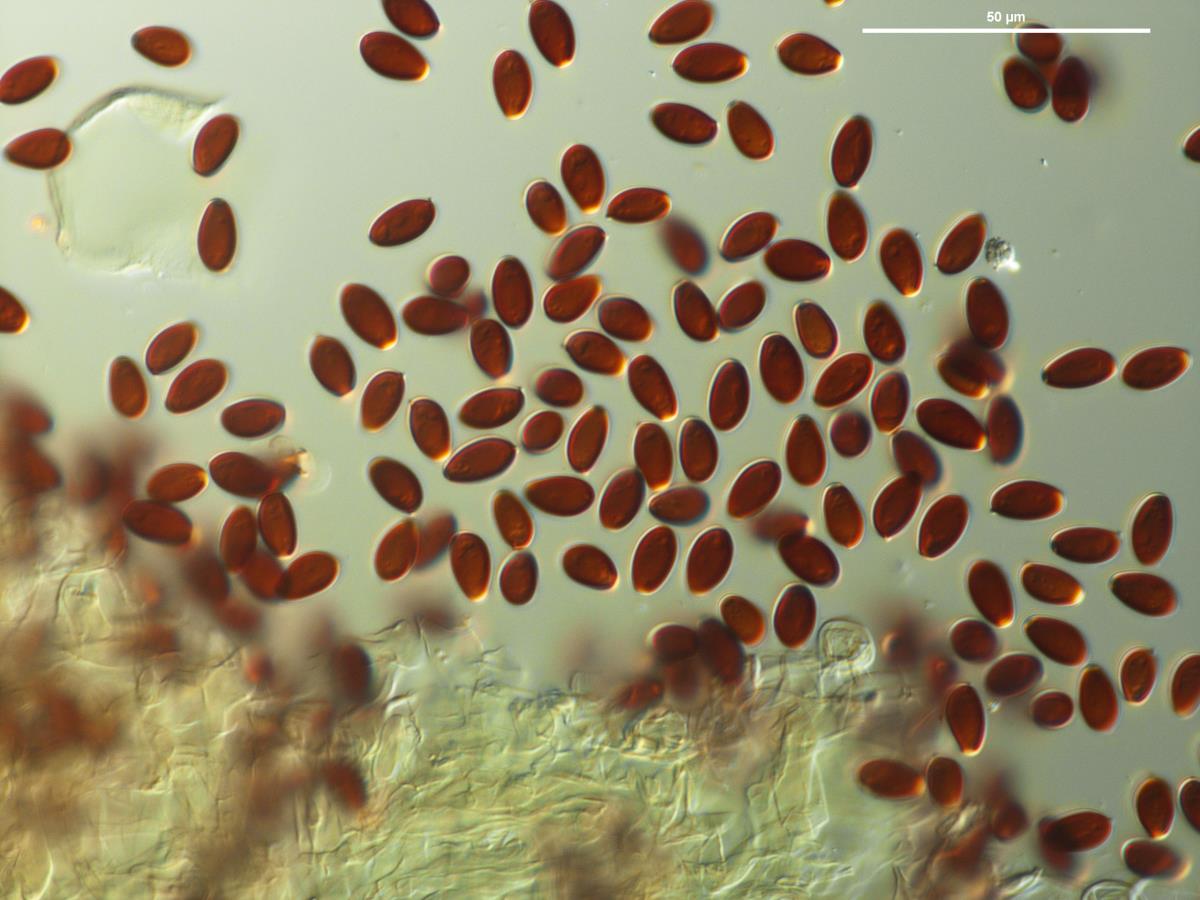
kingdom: Fungi
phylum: Basidiomycota
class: Agaricomycetes
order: Agaricales
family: Psathyrellaceae
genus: Parasola
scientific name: Parasola auricoma
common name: Goldenhaired inkcap
